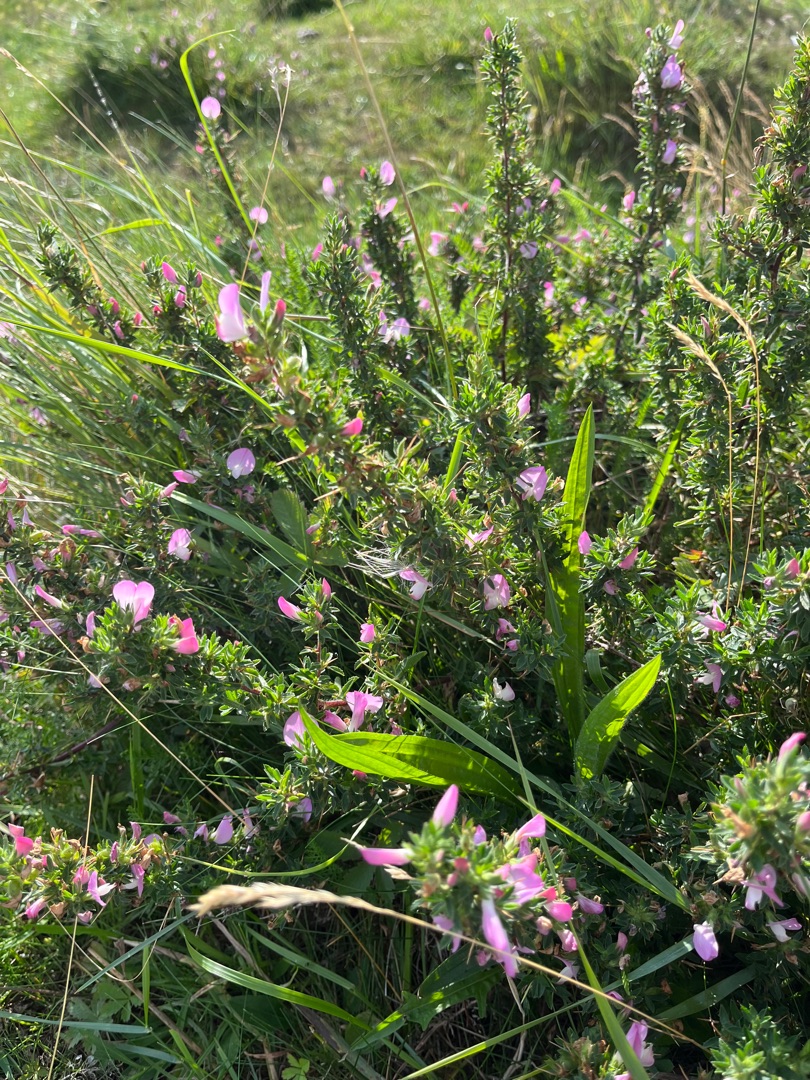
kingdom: Plantae
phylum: Tracheophyta
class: Magnoliopsida
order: Fabales
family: Fabaceae
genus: Ononis
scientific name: Ononis spinosa
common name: Mark-krageklo
